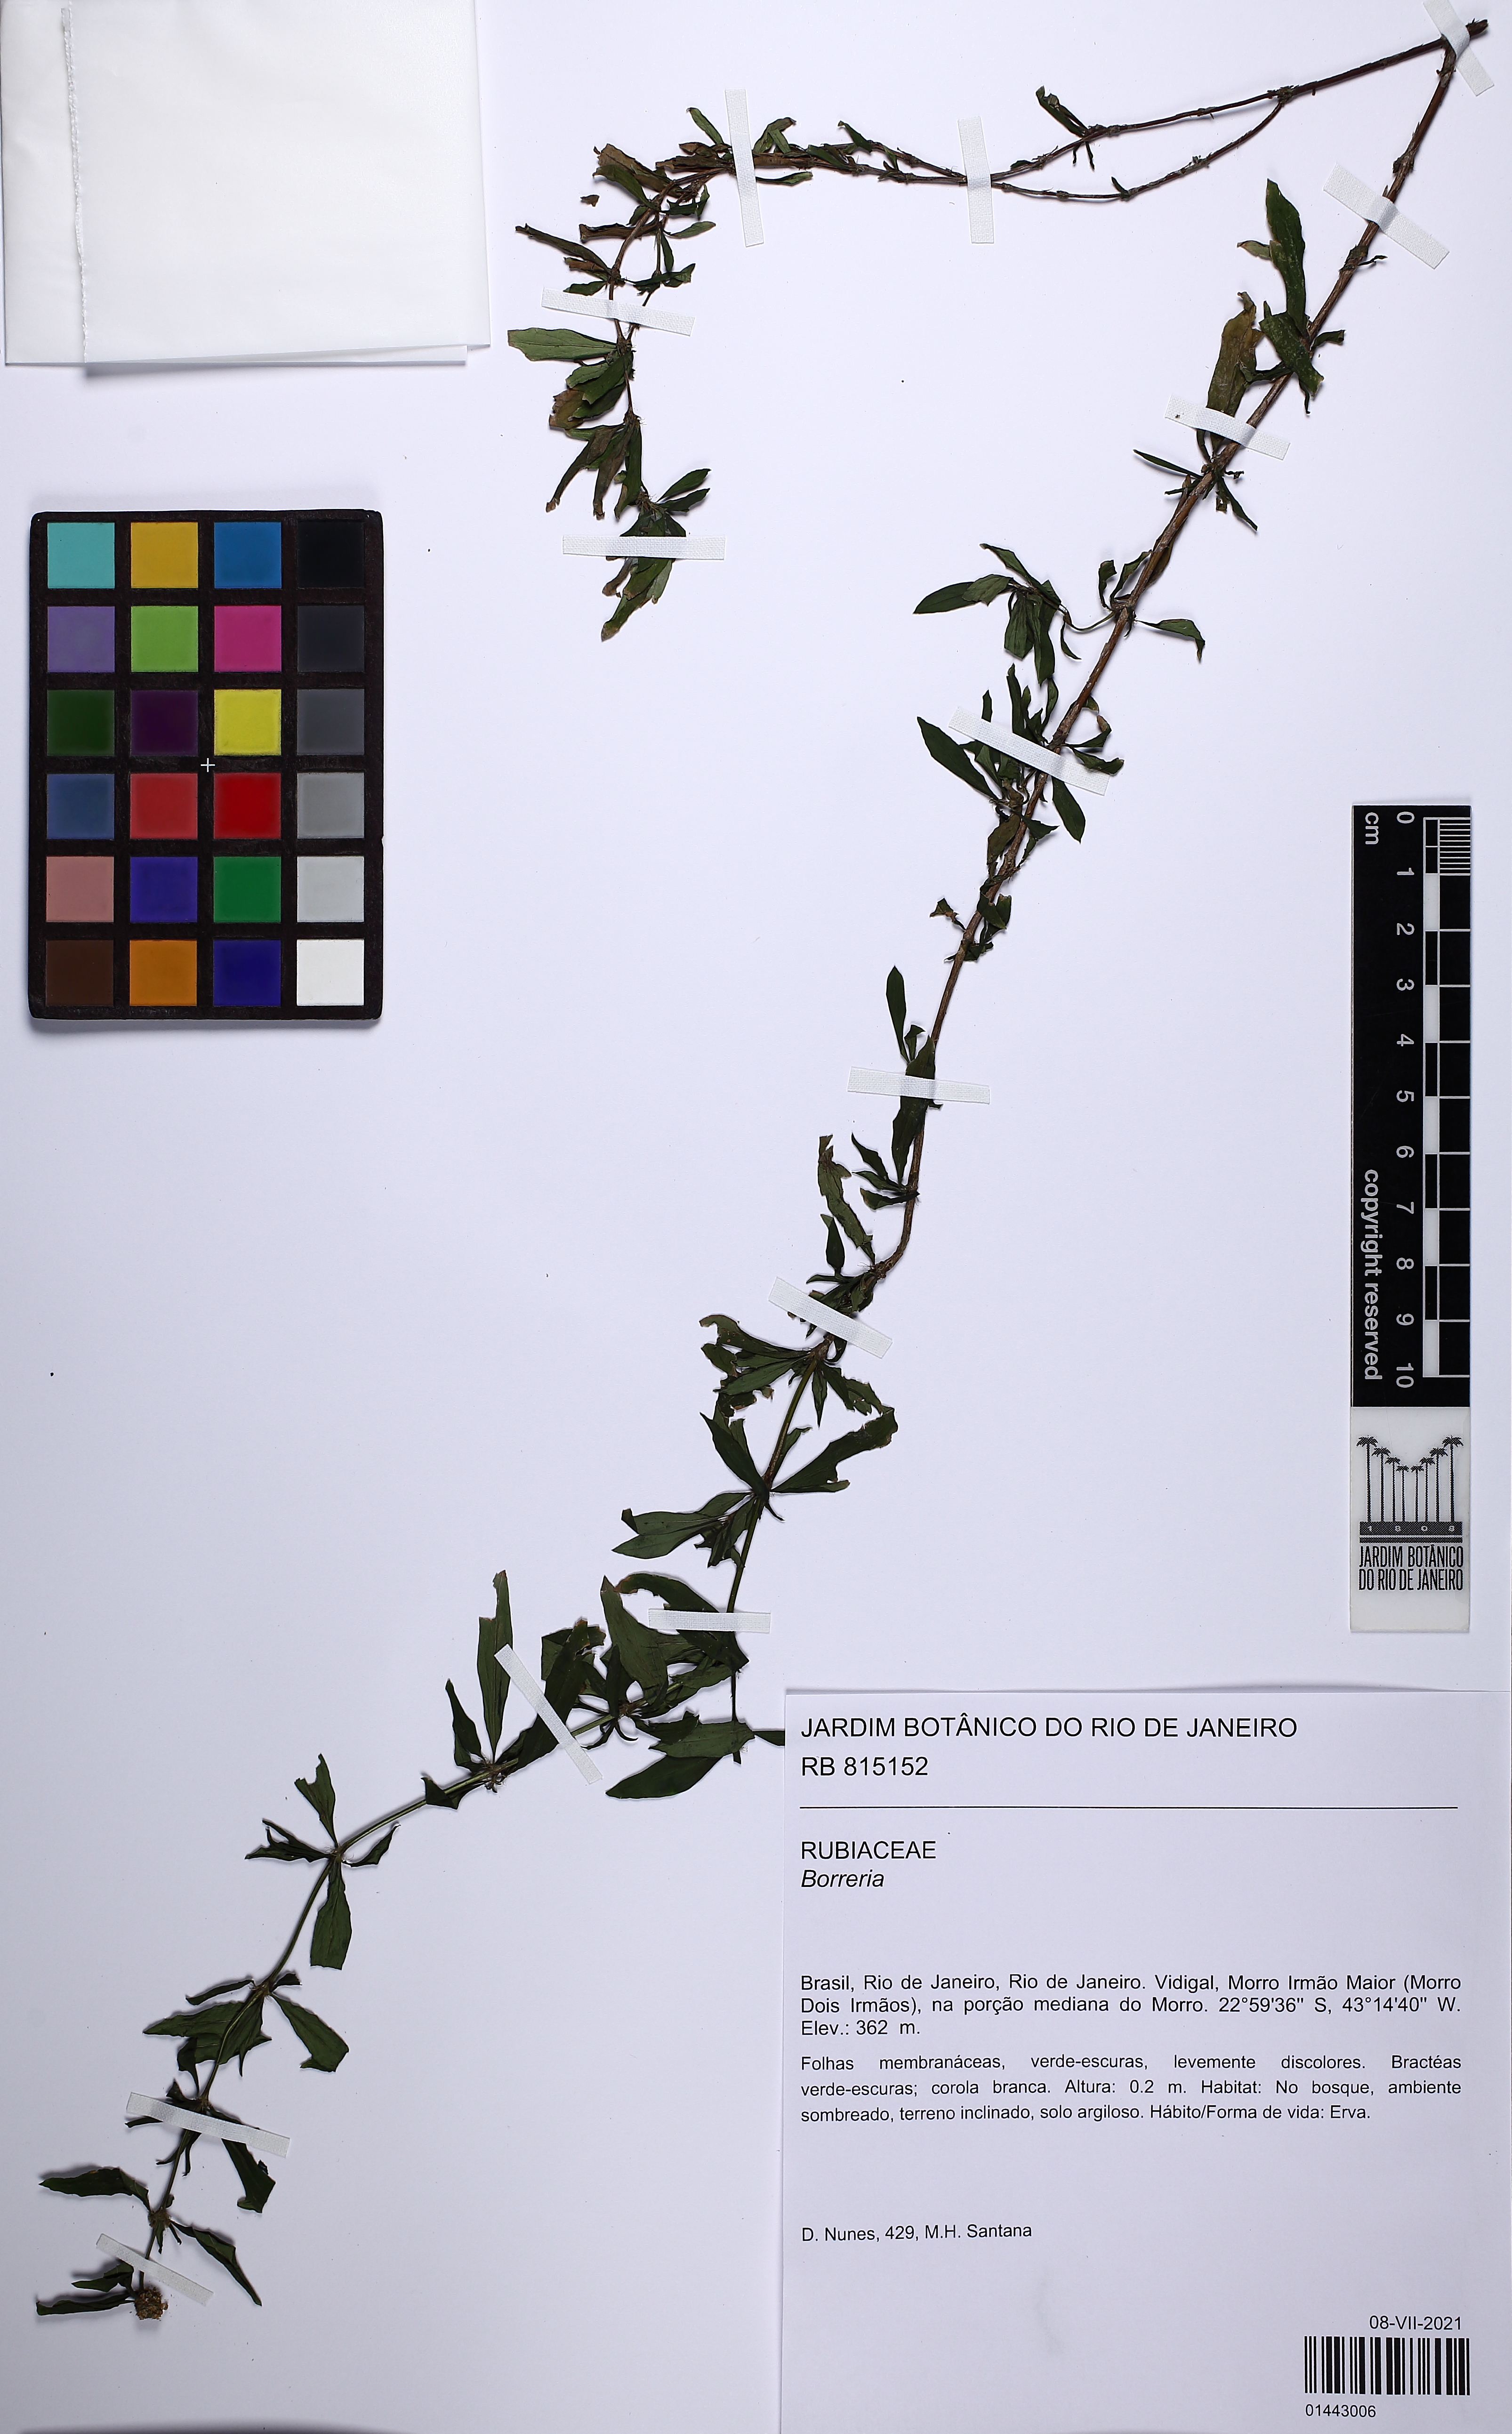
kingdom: Plantae
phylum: Tracheophyta
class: Magnoliopsida
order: Gentianales
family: Rubiaceae
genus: Spermacoce
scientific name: Spermacoce verticillata
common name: Shrubby false buttonweed
